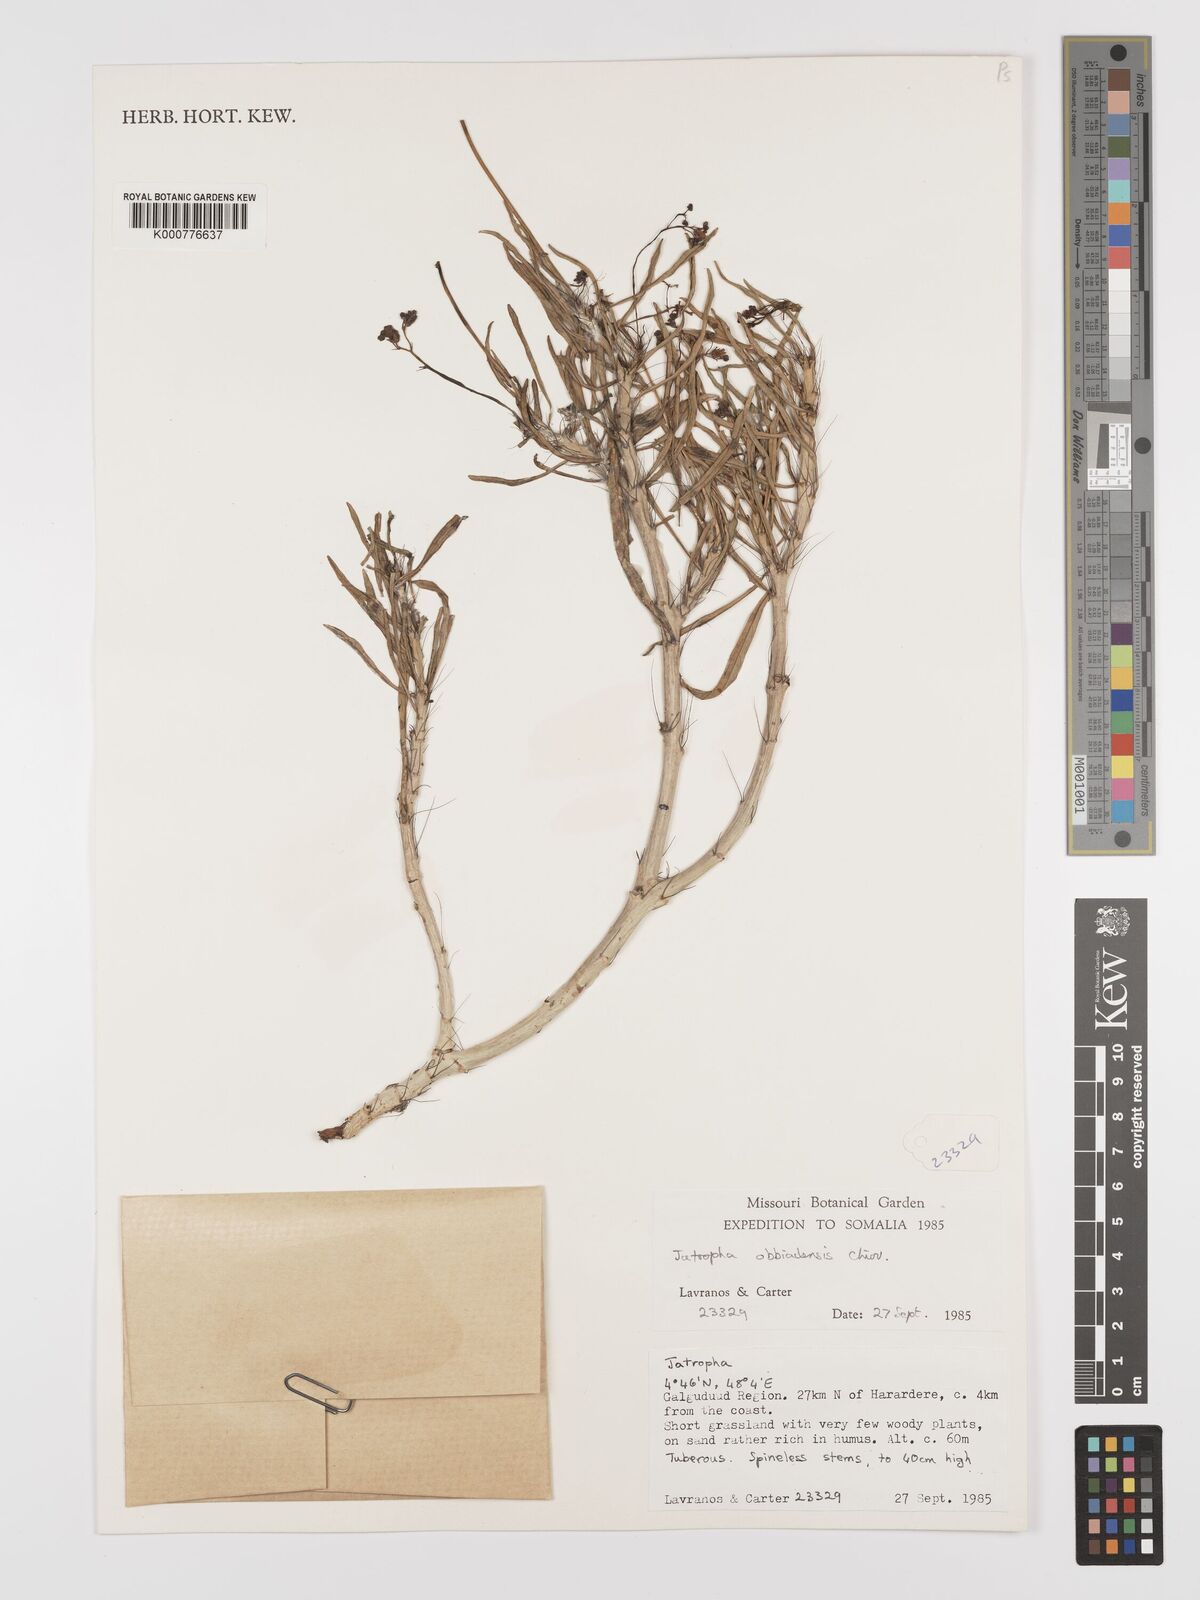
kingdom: Plantae
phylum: Tracheophyta
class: Magnoliopsida
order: Malpighiales
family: Euphorbiaceae
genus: Jatropha
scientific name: Jatropha obbiadensis
